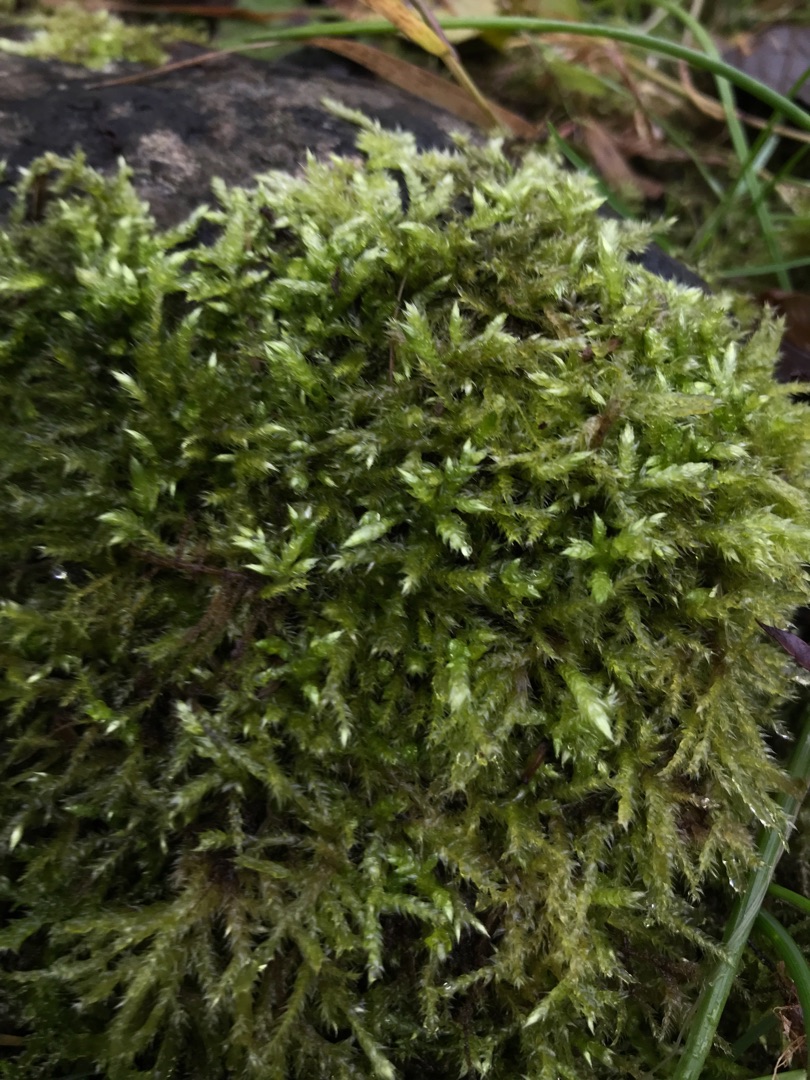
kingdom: Plantae
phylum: Bryophyta
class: Bryopsida
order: Hypnales
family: Brachytheciaceae
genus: Brachythecium
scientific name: Brachythecium rutabulum
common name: Almindelig kortkapsel
